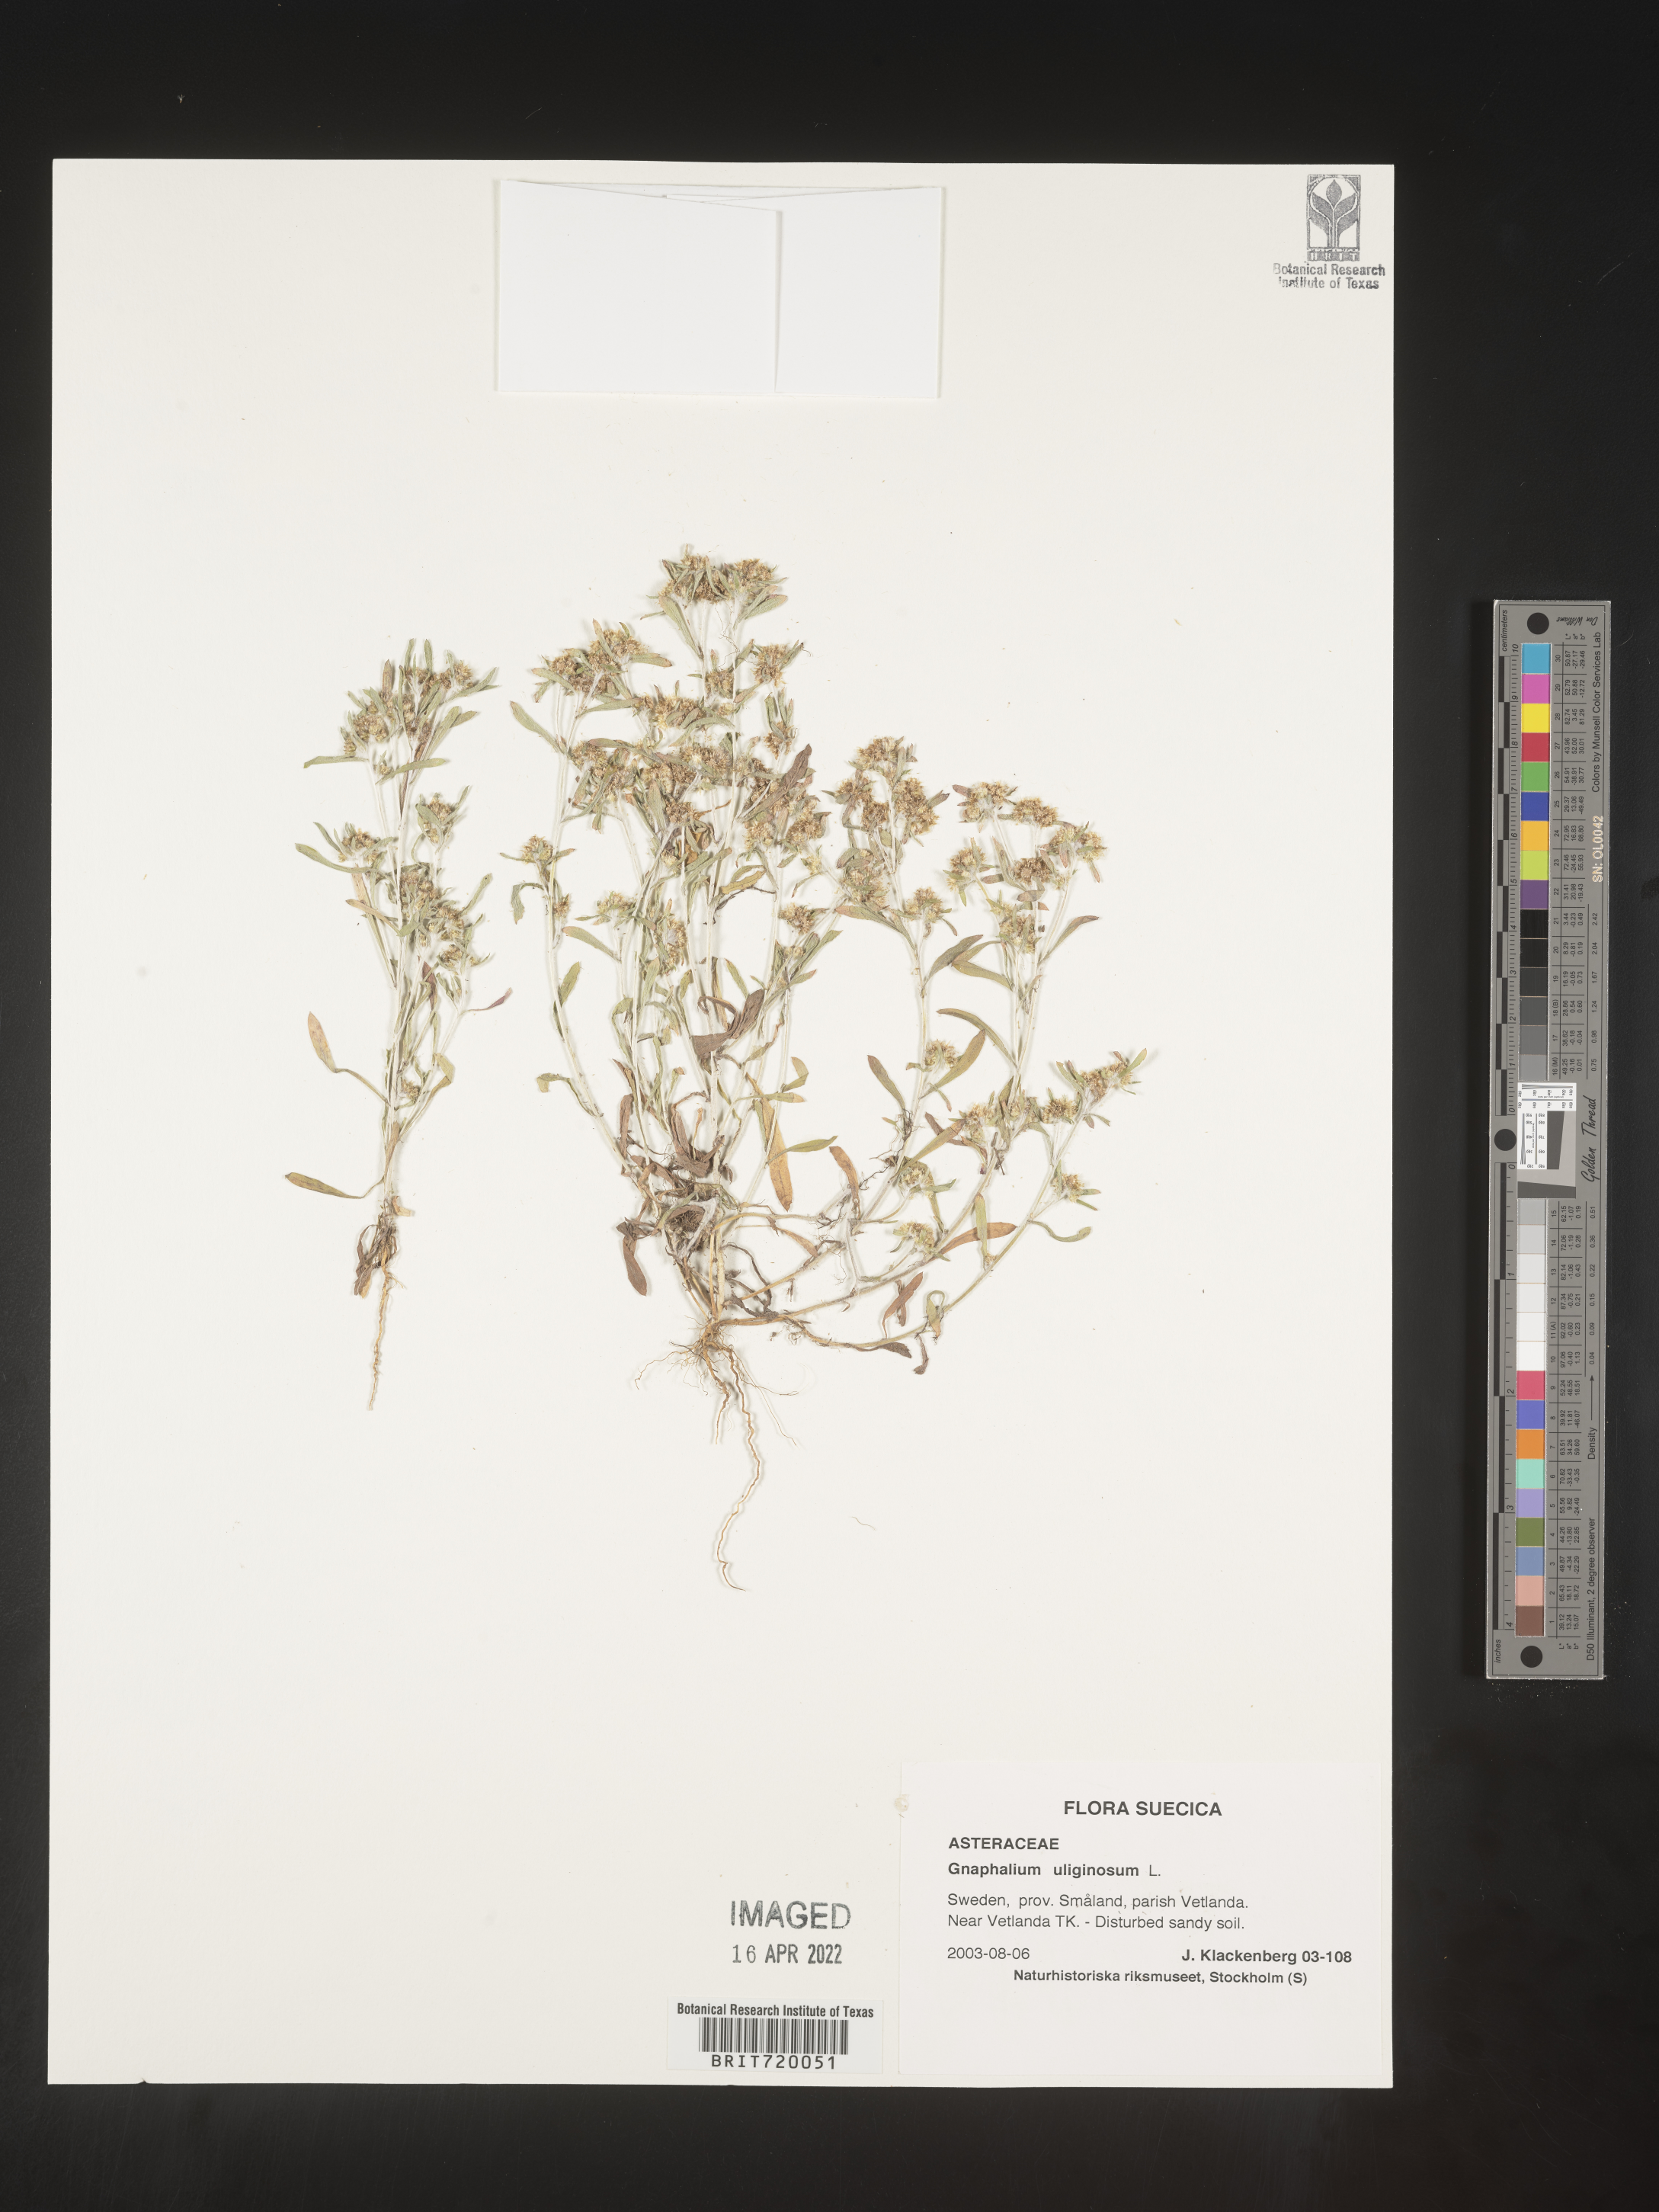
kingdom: Plantae
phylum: Tracheophyta
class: Magnoliopsida
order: Asterales
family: Asteraceae
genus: Gnaphalium
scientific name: Gnaphalium
